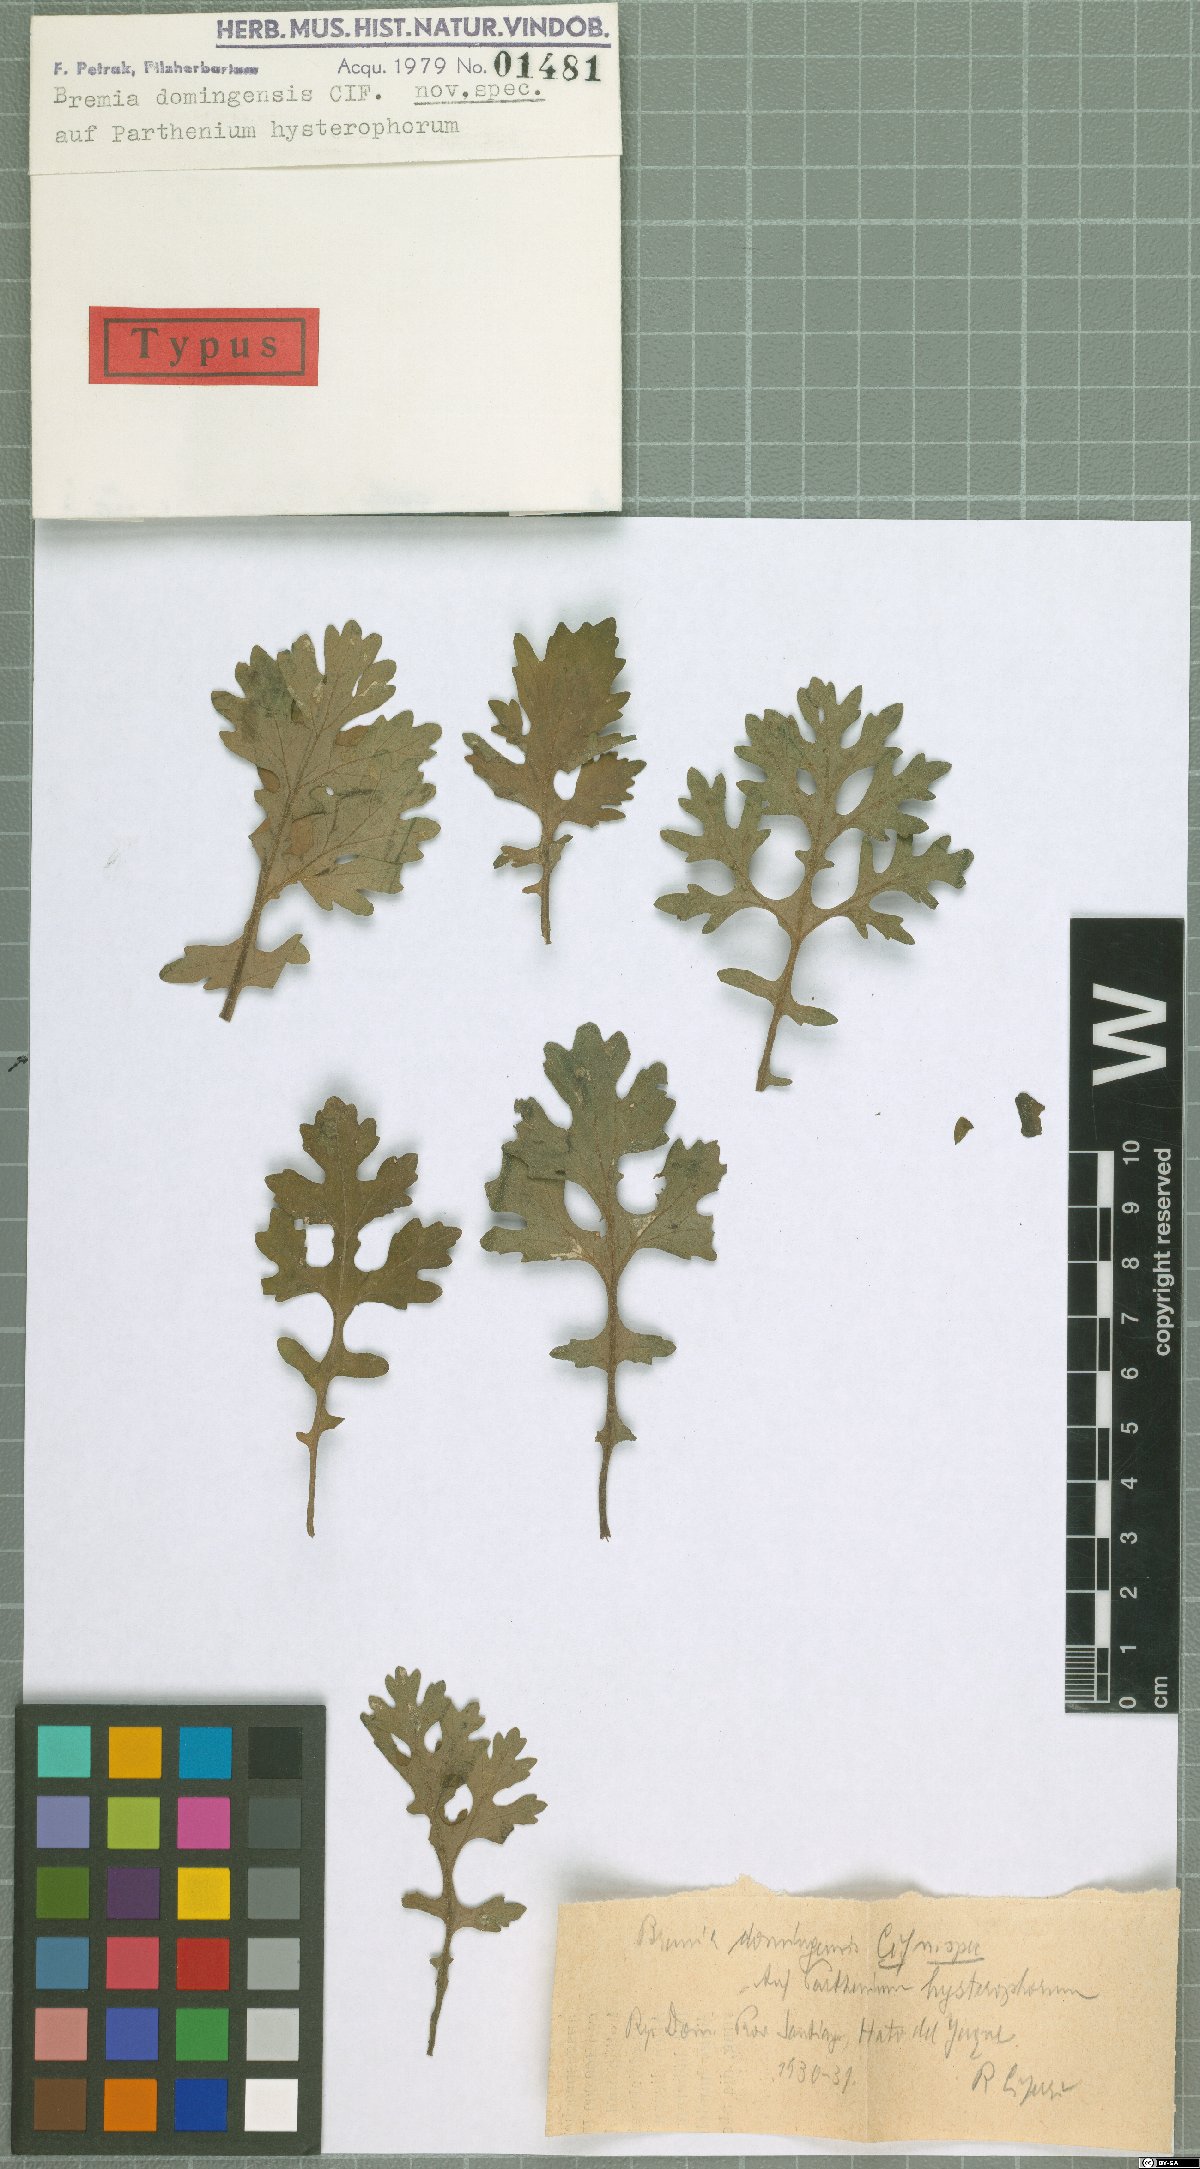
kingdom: Chromista
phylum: Oomycota
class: Peronosporea
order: Peronosporales
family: Peronosporaceae
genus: Plasmopara
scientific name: Plasmopara domingensis
